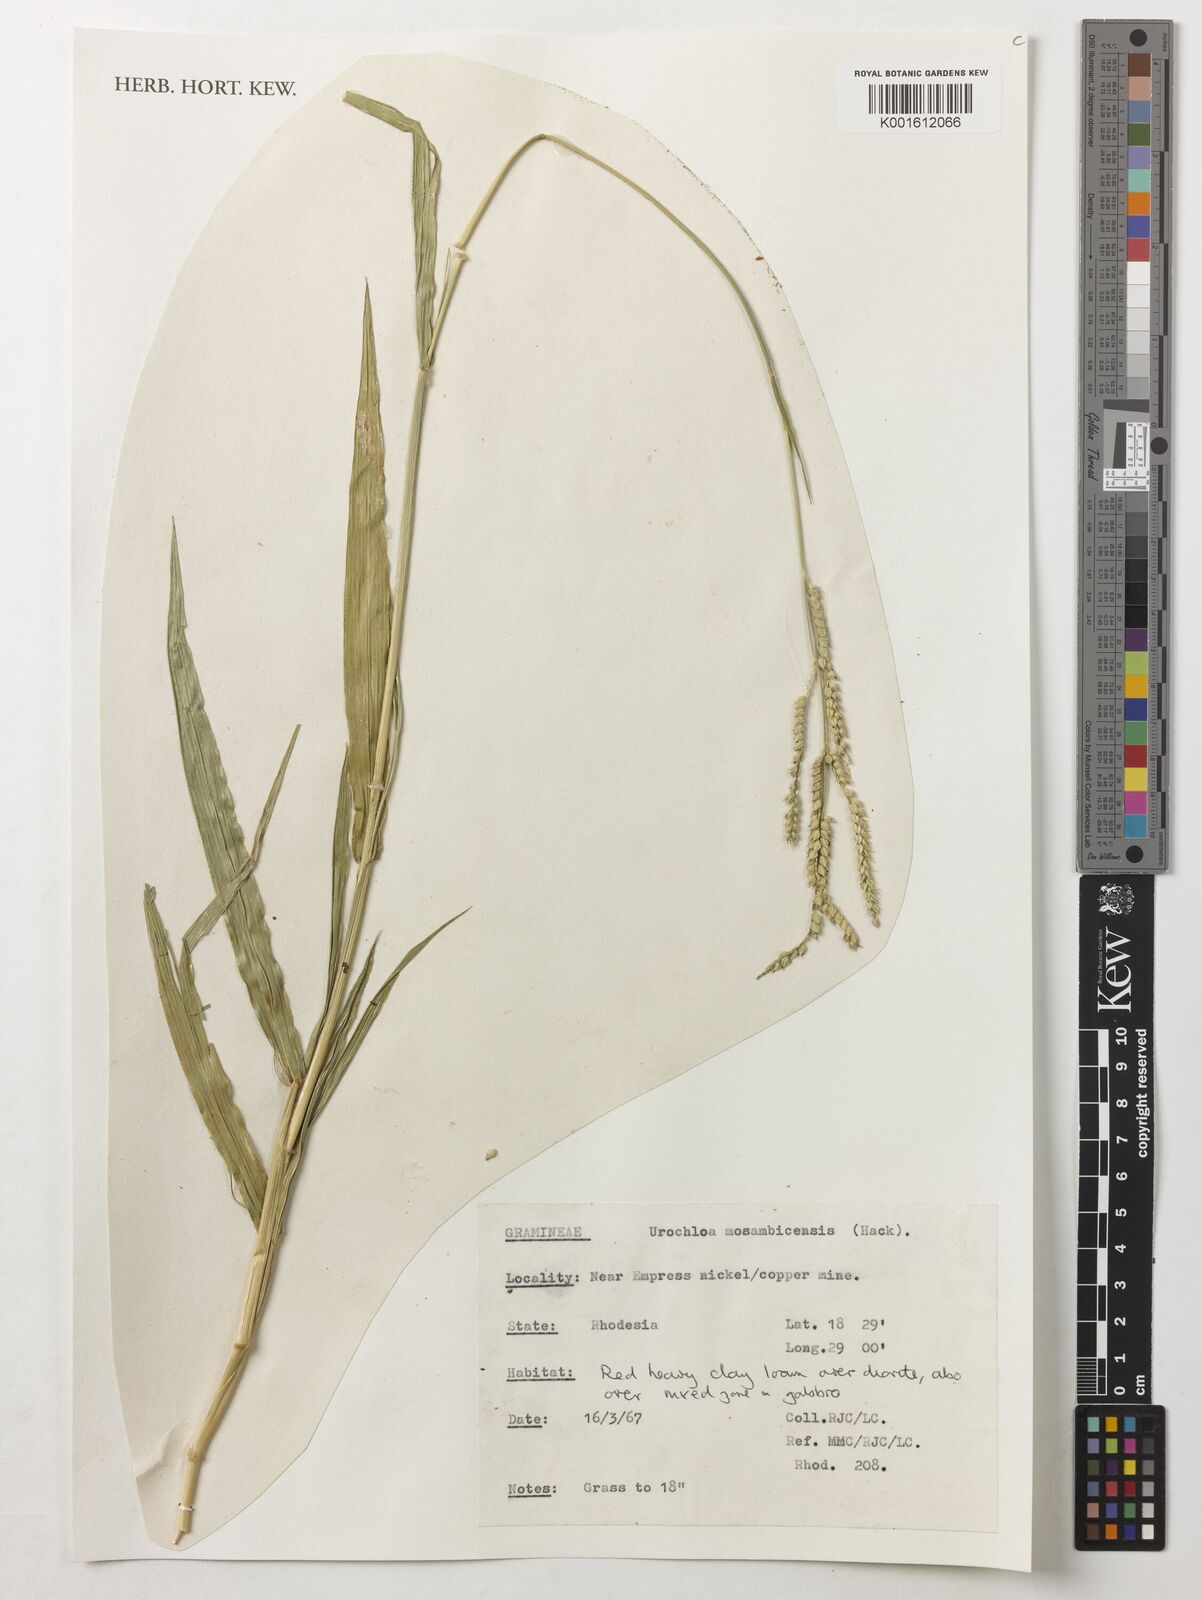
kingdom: Plantae
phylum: Tracheophyta
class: Liliopsida
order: Poales
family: Poaceae
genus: Urochloa
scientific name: Urochloa trichopus
